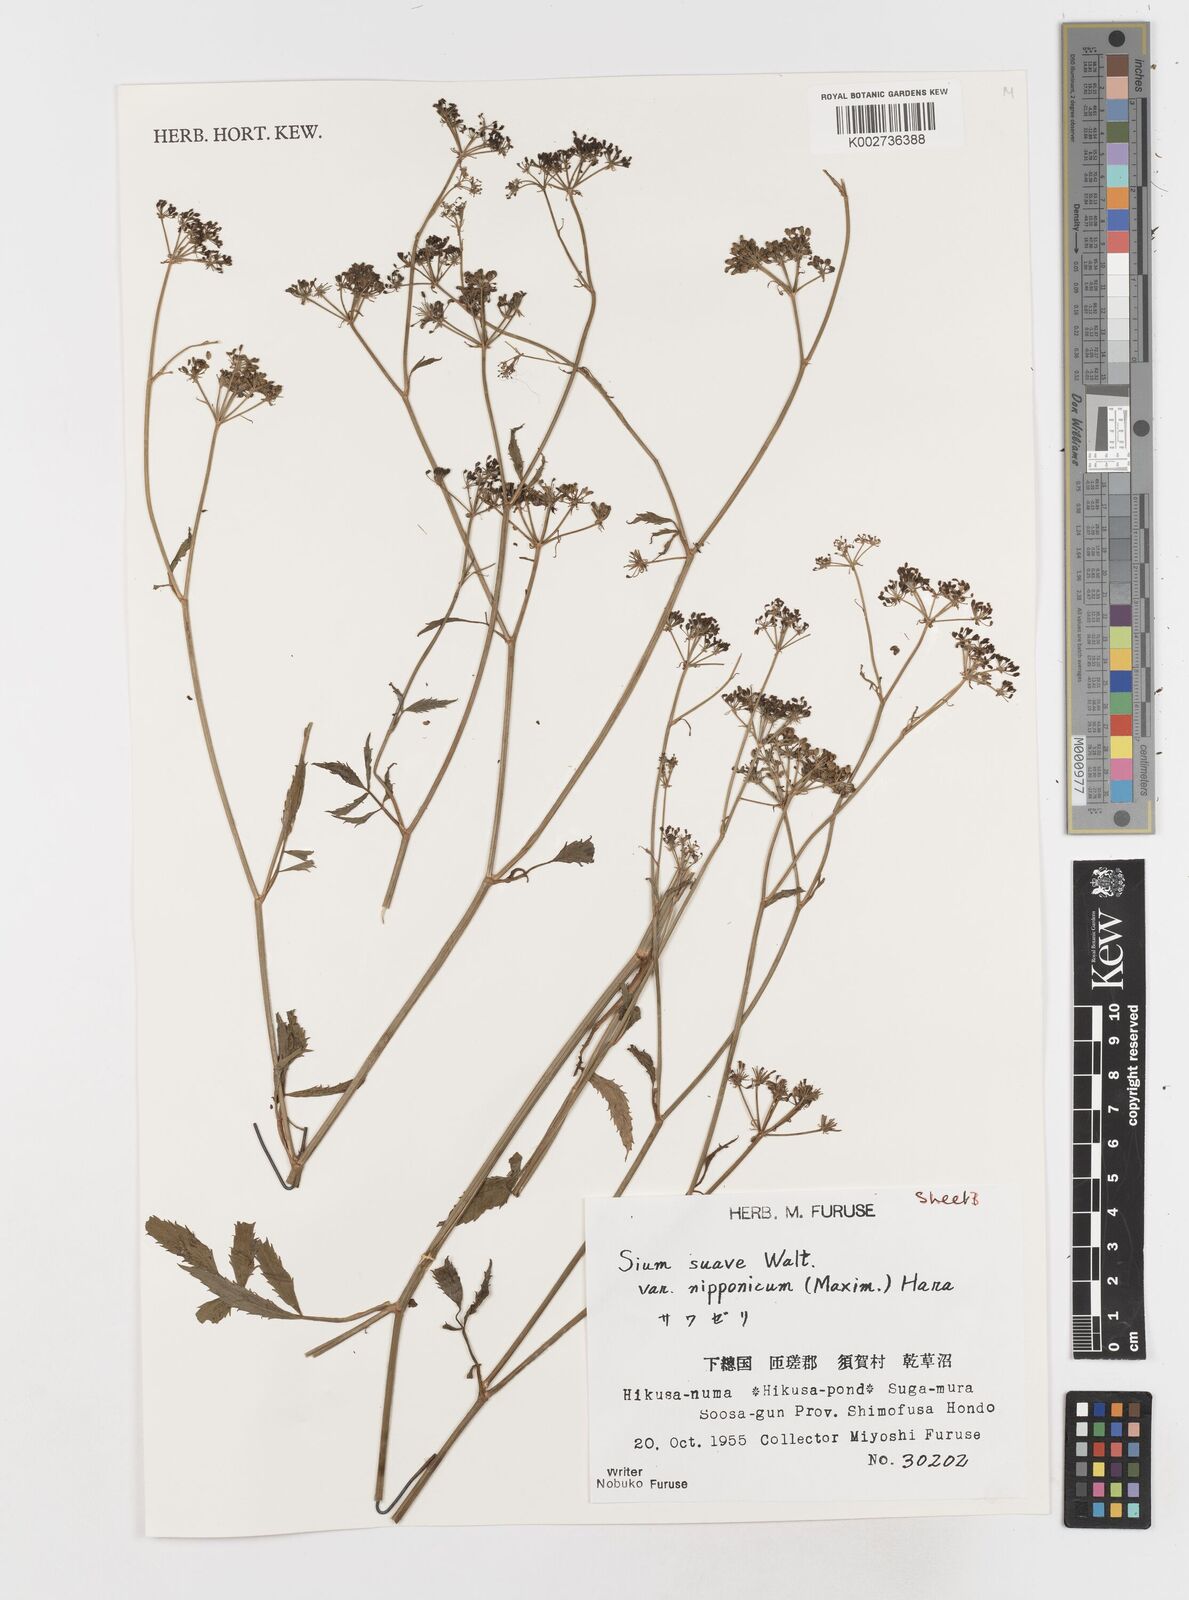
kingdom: Plantae
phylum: Tracheophyta
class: Magnoliopsida
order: Apiales
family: Apiaceae
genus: Sium
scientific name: Sium suave
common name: Hemlock water-parsnip
